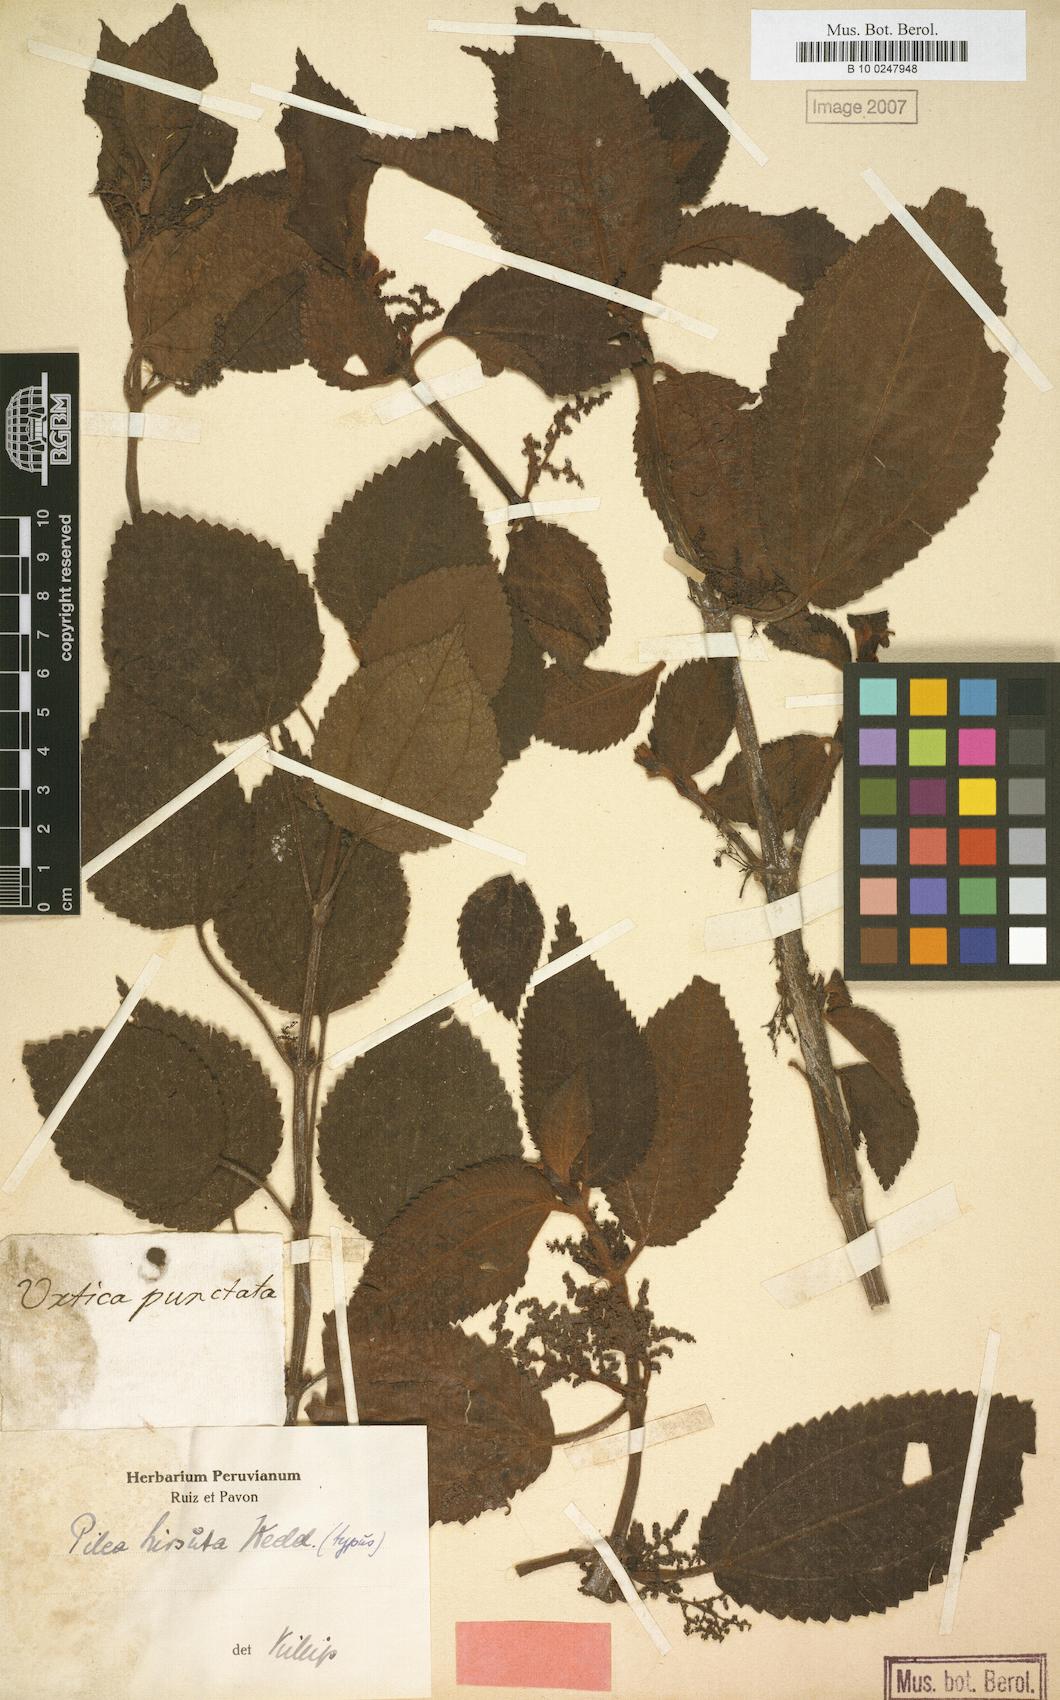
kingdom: Plantae
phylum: Tracheophyta
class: Magnoliopsida
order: Rosales
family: Urticaceae
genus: Pilea
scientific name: Pilea hirsuta
